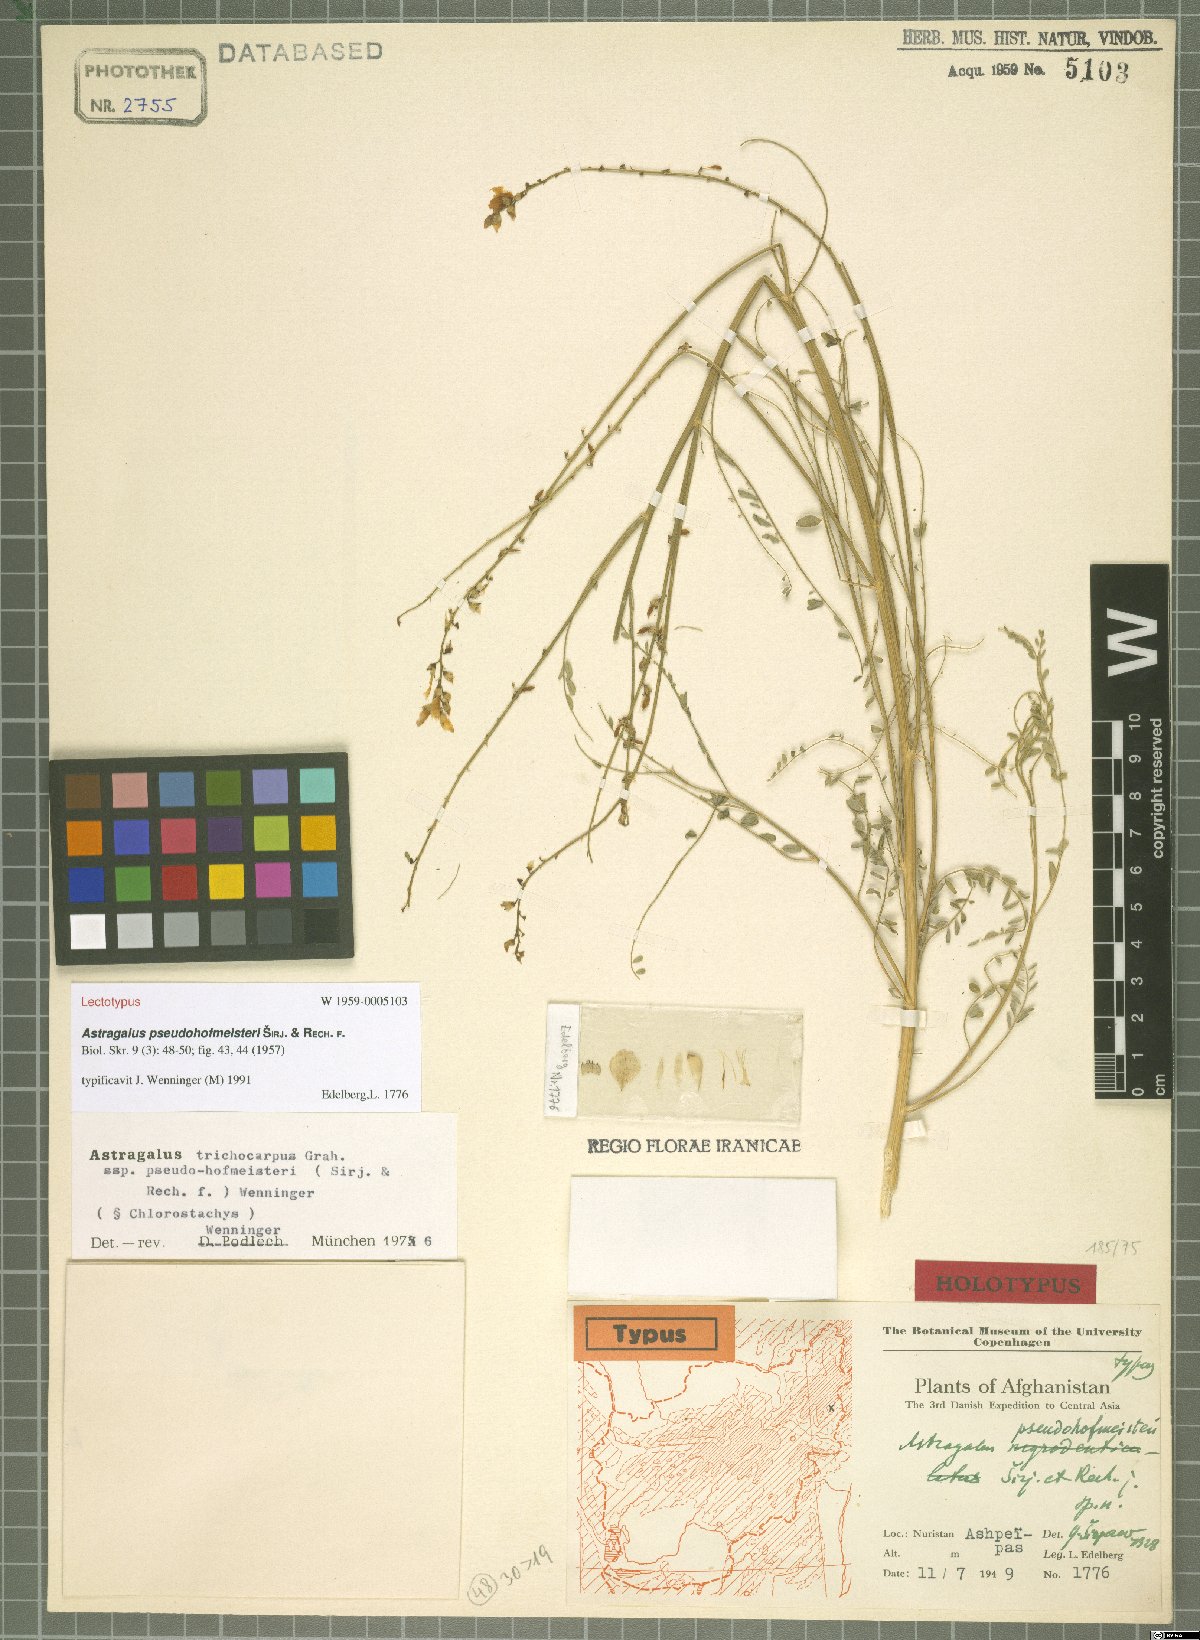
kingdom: Plantae
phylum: Tracheophyta
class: Magnoliopsida
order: Fabales
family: Fabaceae
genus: Astragalus
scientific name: Astragalus pseudohofmeisteri
